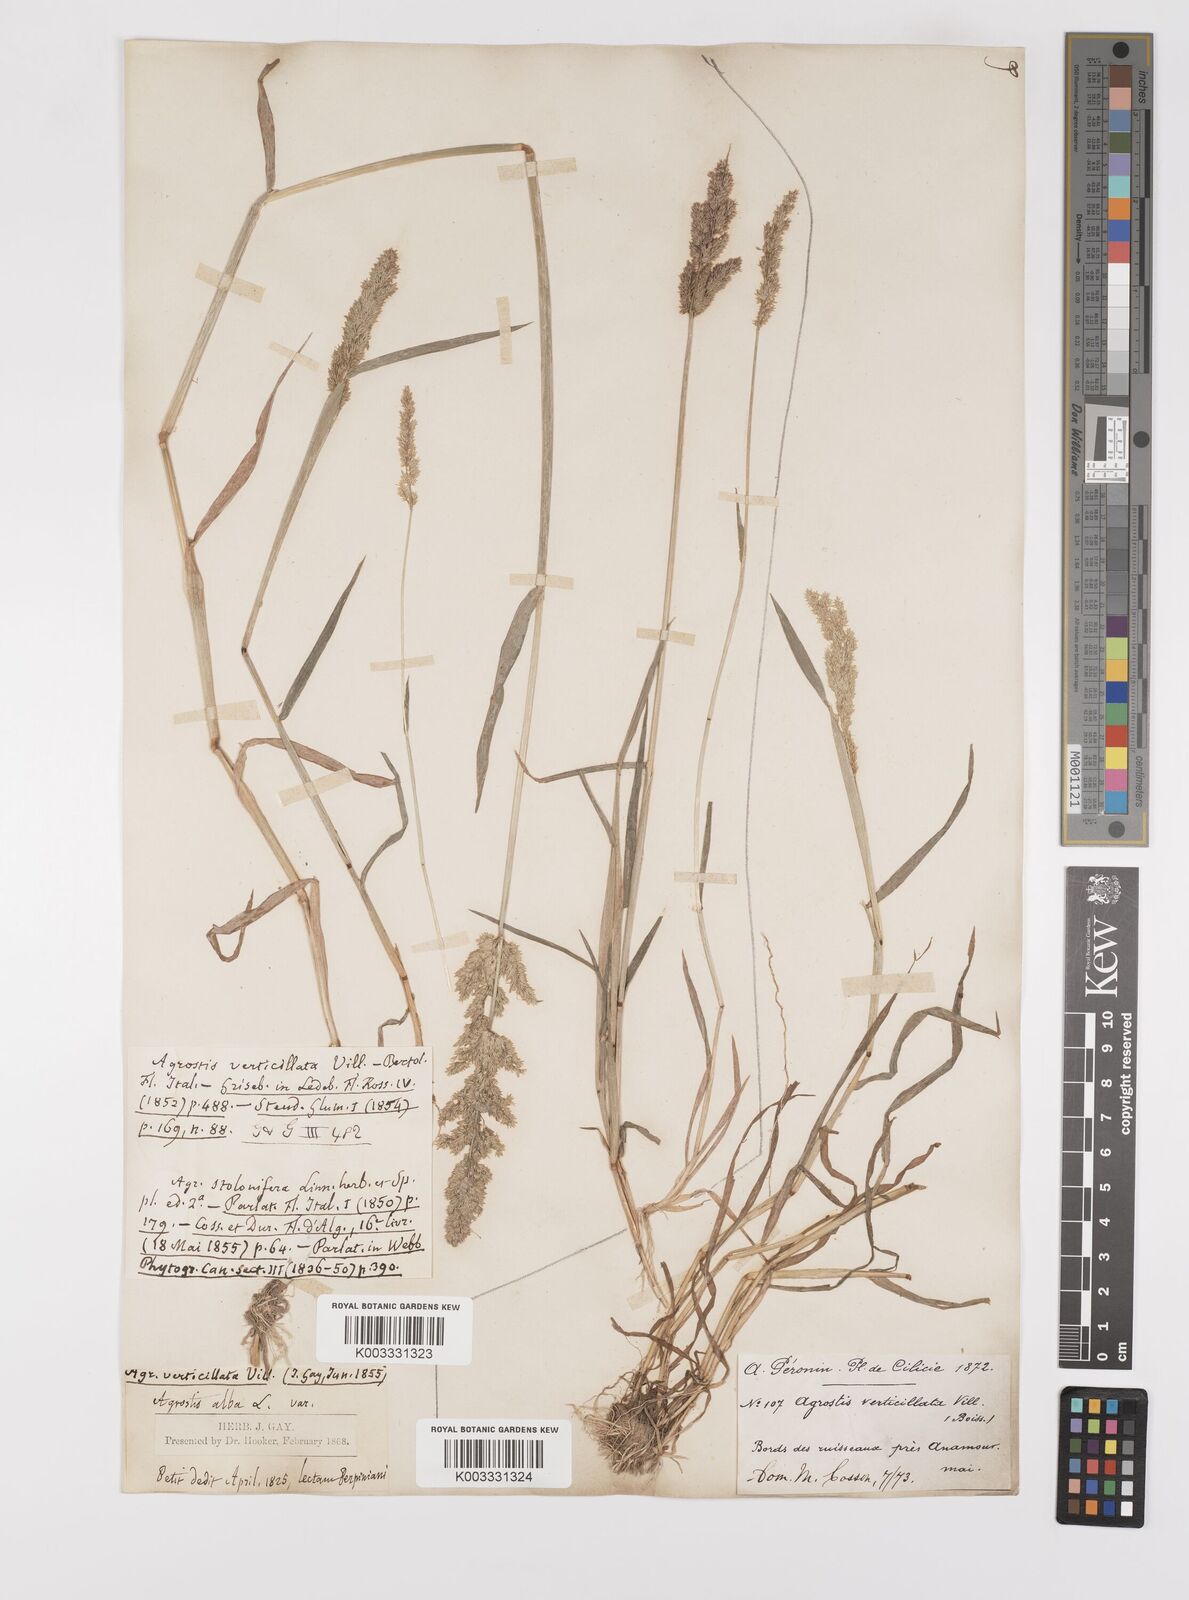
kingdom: Plantae
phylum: Tracheophyta
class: Liliopsida
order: Poales
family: Poaceae
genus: Polypogon
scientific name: Polypogon viridis
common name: Water bent
